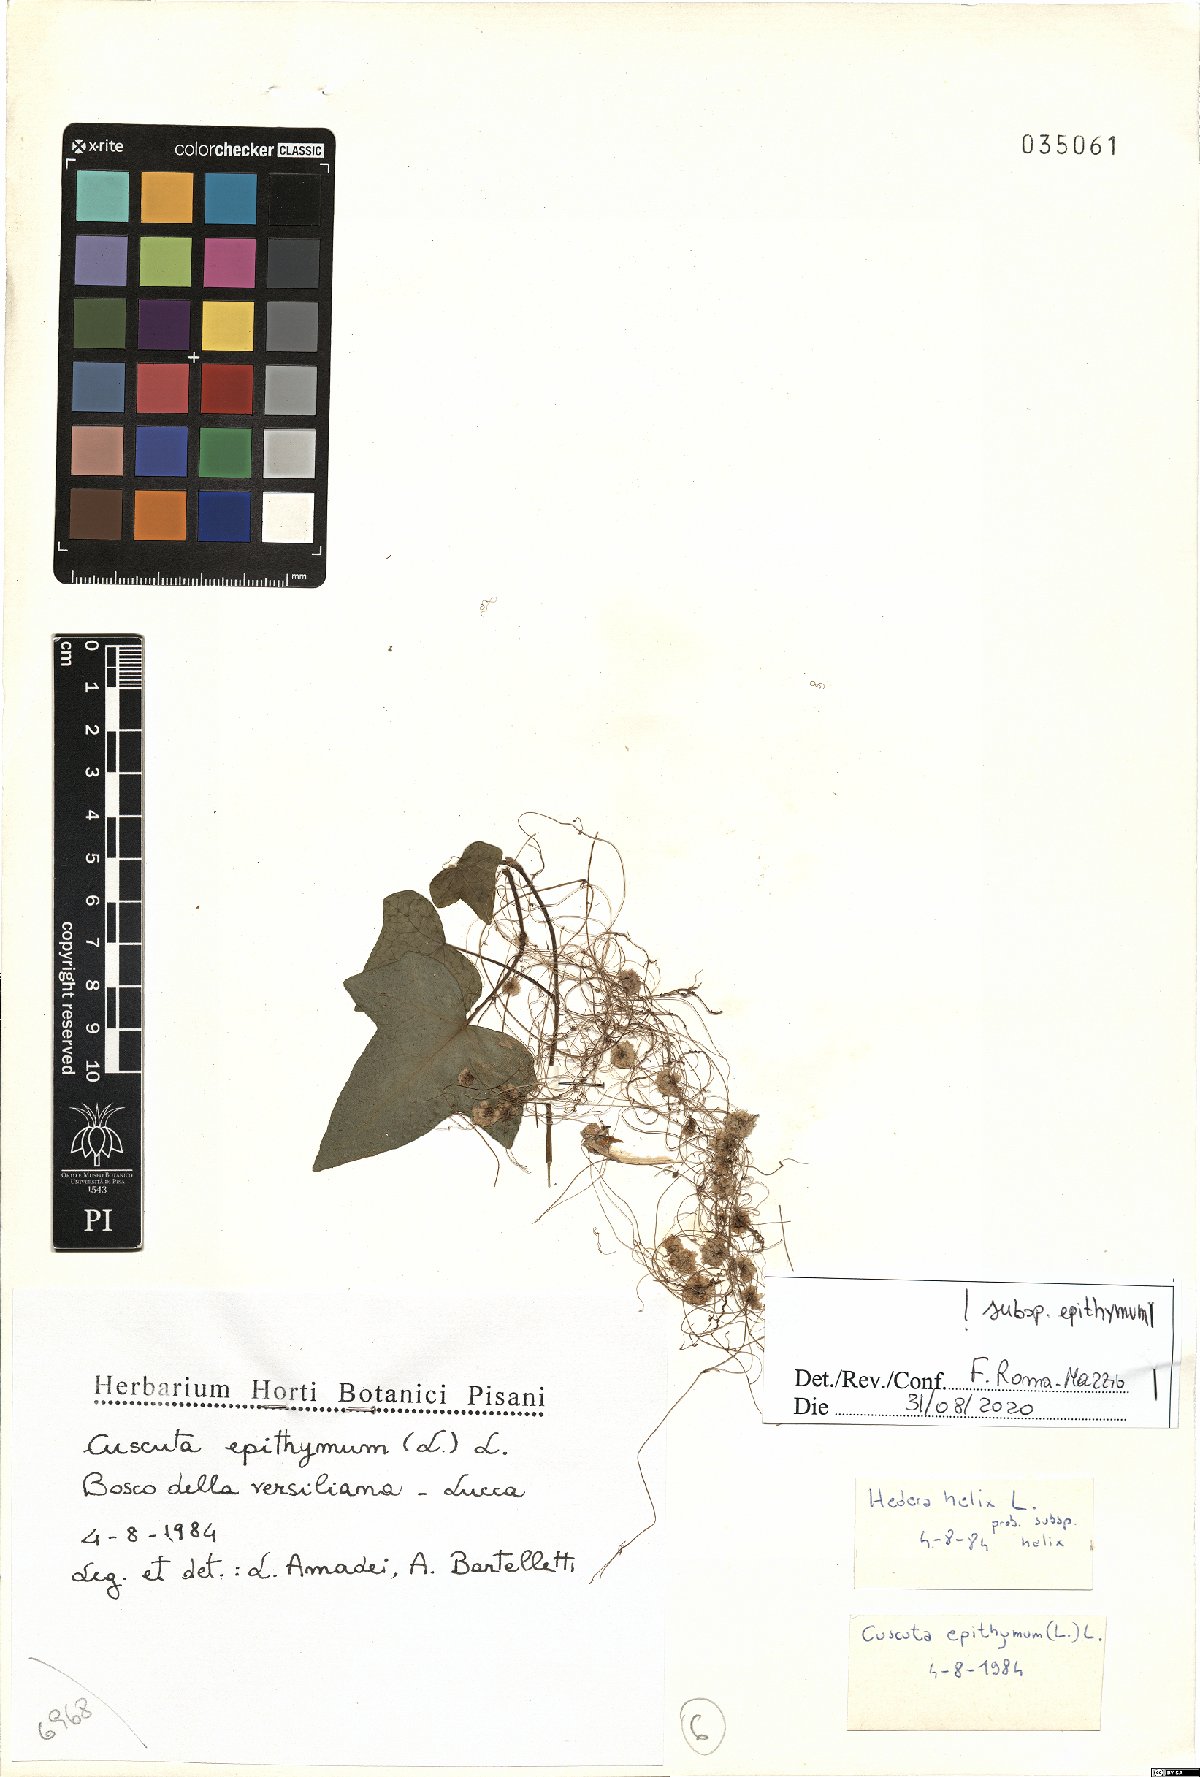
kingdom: Plantae
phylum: Tracheophyta
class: Magnoliopsida
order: Solanales
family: Convolvulaceae
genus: Cuscuta
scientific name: Cuscuta epithymum
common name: Clover dodder
